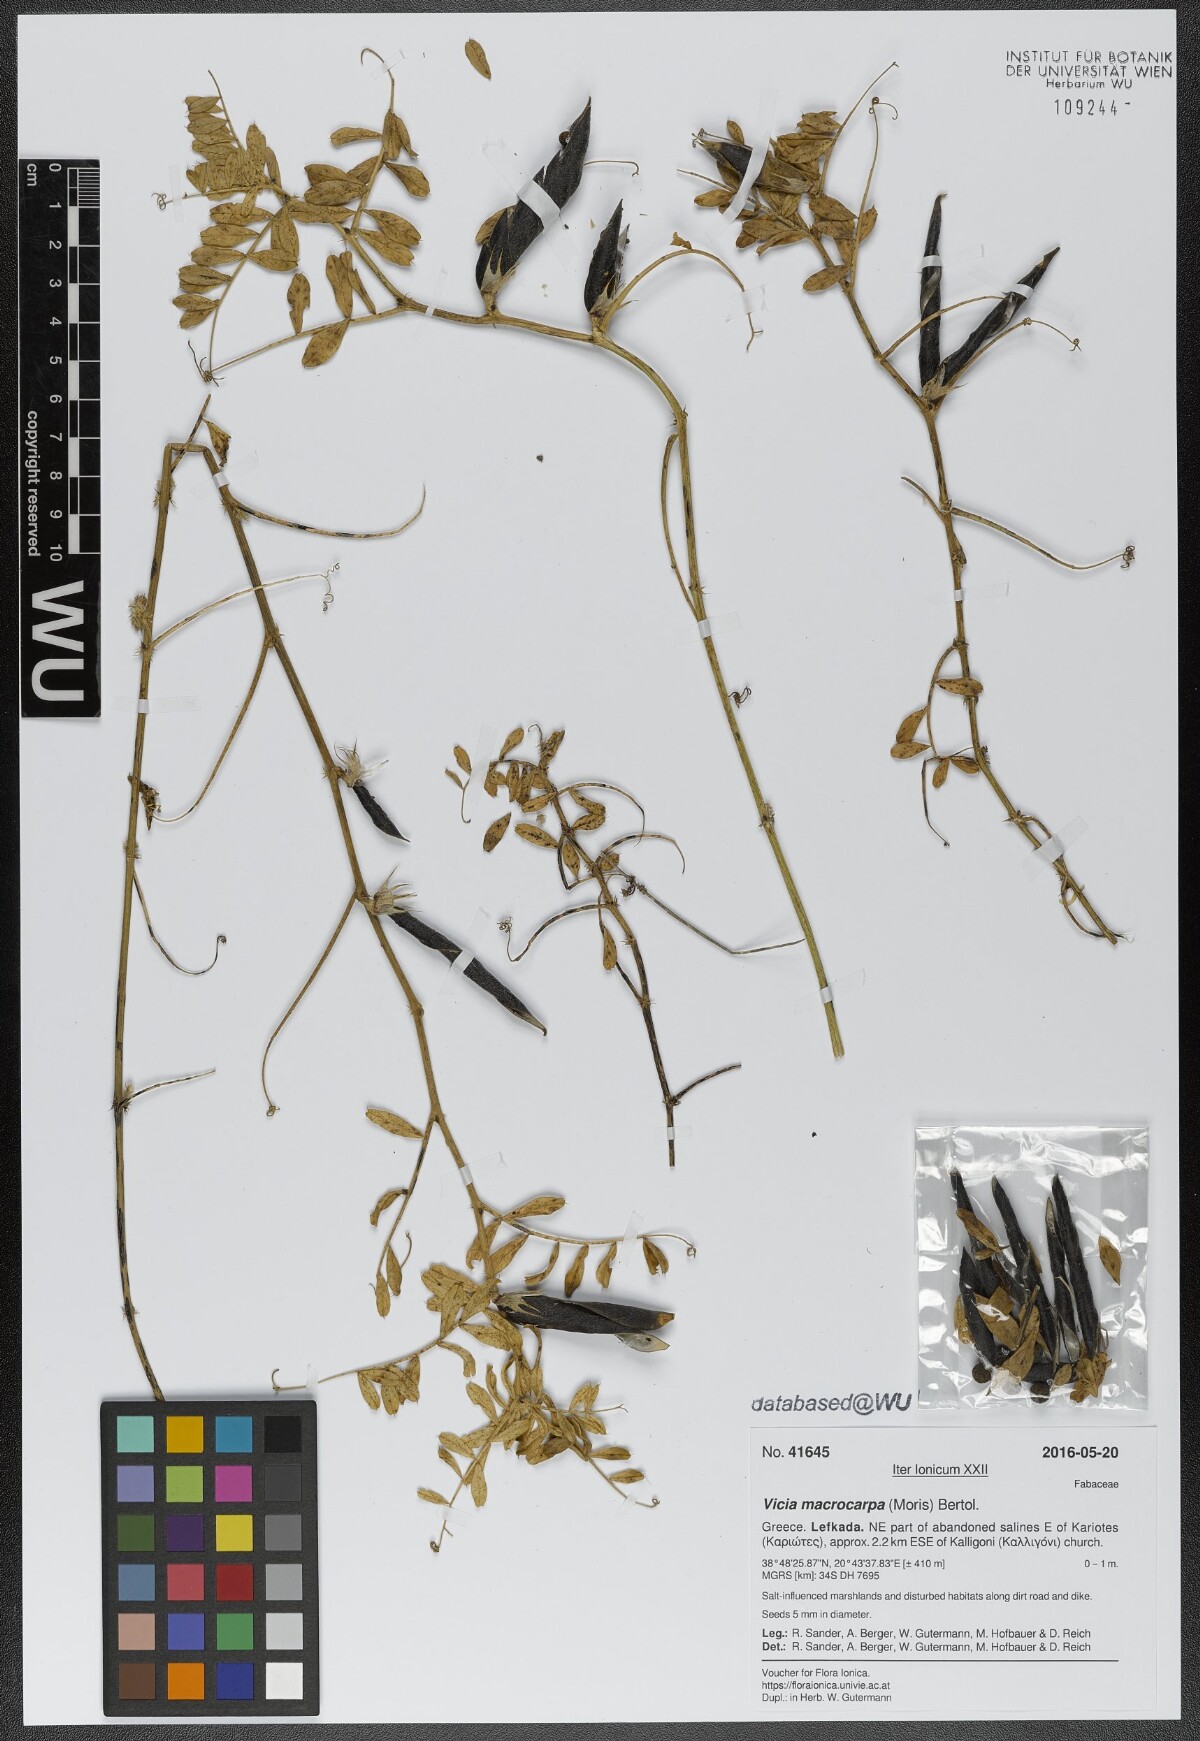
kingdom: Plantae
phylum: Tracheophyta
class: Magnoliopsida
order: Fabales
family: Fabaceae
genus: Vicia
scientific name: Vicia sativa
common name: Garden vetch
